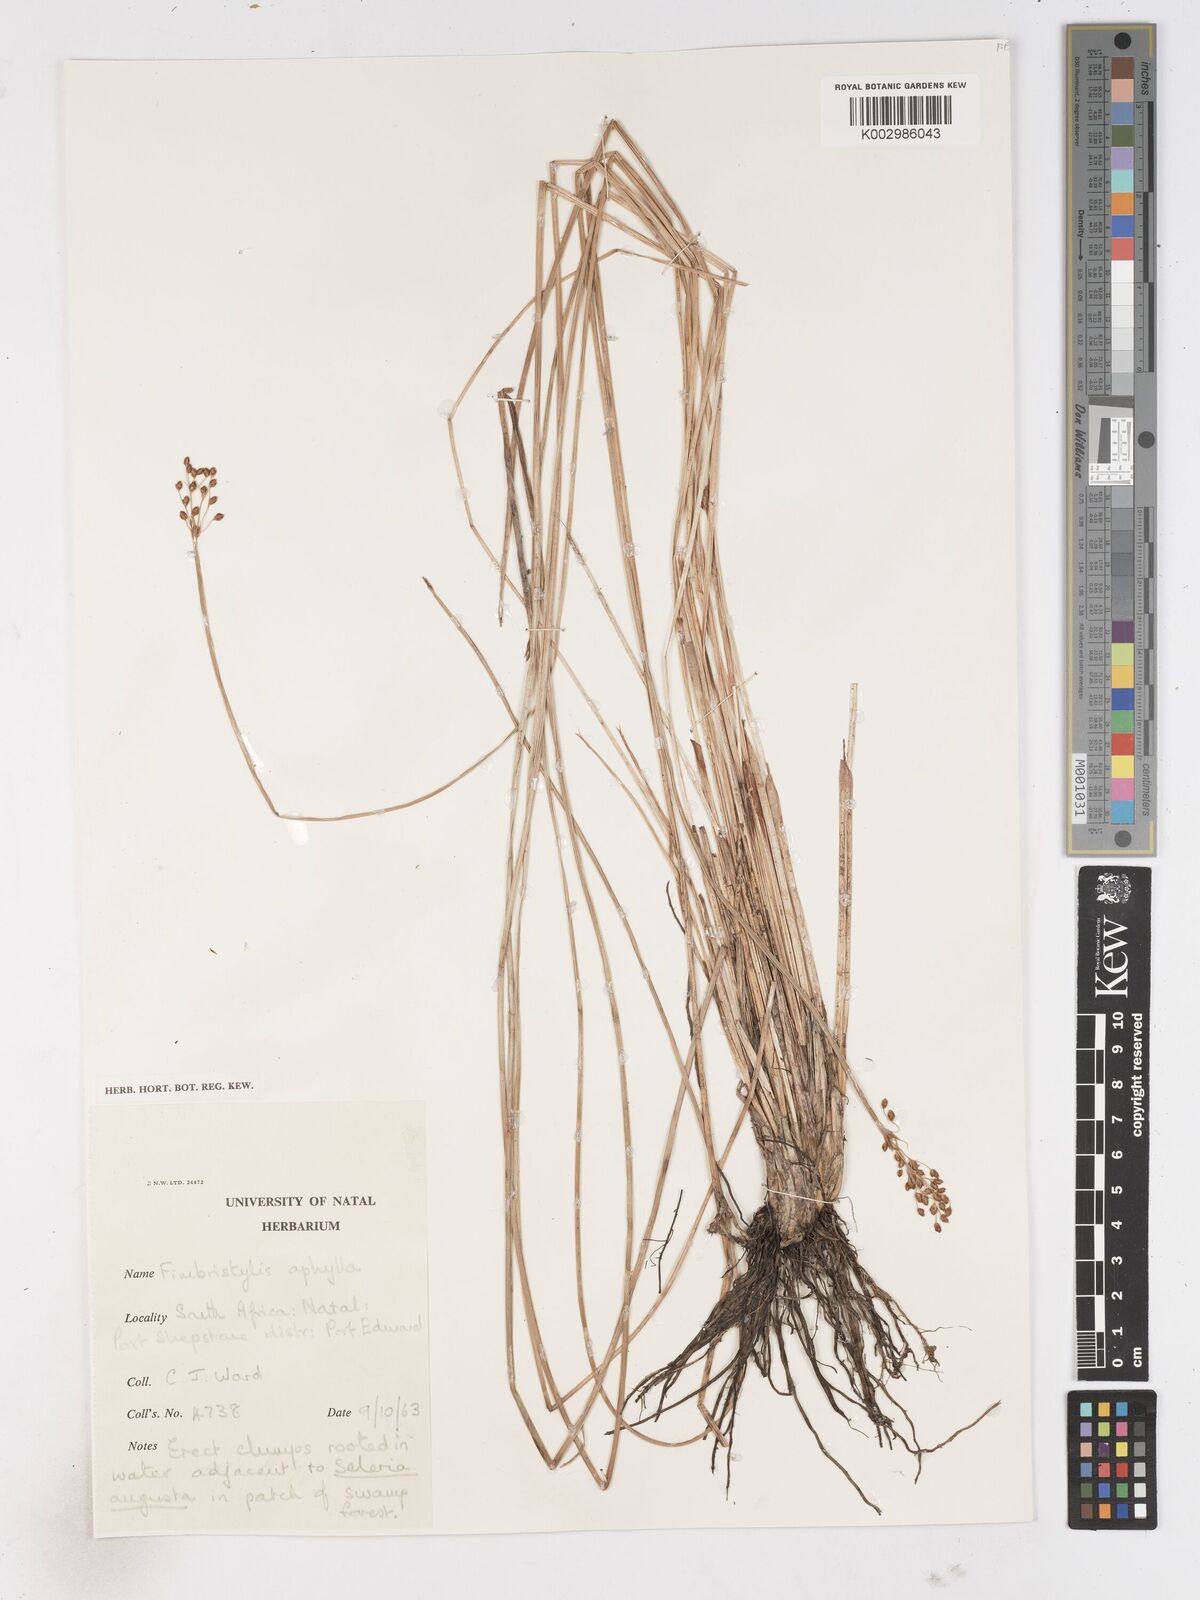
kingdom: Plantae
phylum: Tracheophyta
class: Liliopsida
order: Poales
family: Cyperaceae
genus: Fimbristylis
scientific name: Fimbristylis
